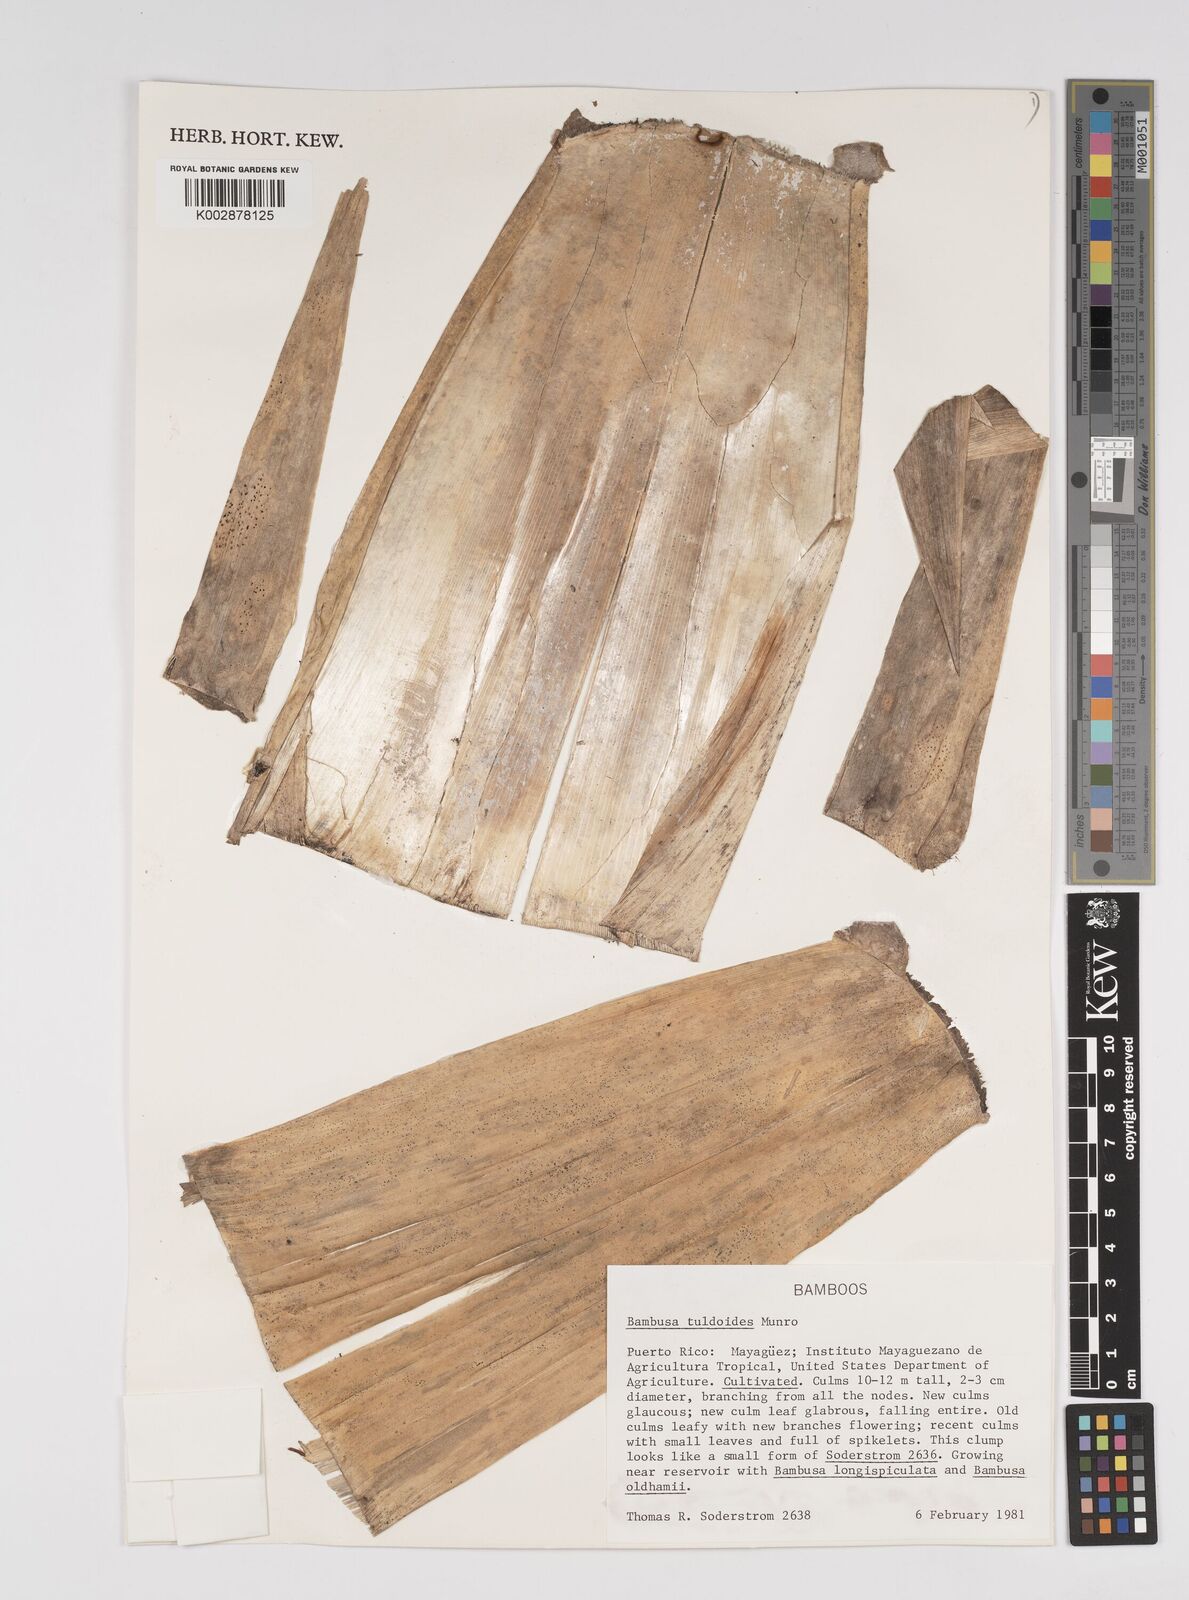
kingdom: Plantae
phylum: Tracheophyta
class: Liliopsida
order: Poales
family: Poaceae
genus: Bambusa
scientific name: Bambusa tuldoides
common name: Verdant bamboo
